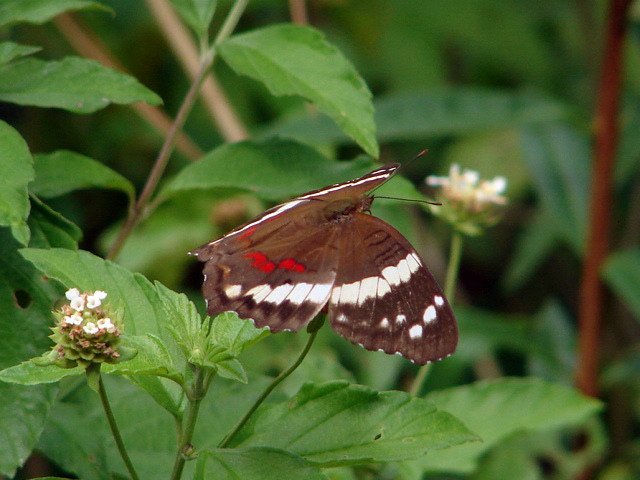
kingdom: Animalia
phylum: Arthropoda
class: Insecta
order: Lepidoptera
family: Nymphalidae
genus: Anartia
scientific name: Anartia fatima
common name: Banded Peacock
